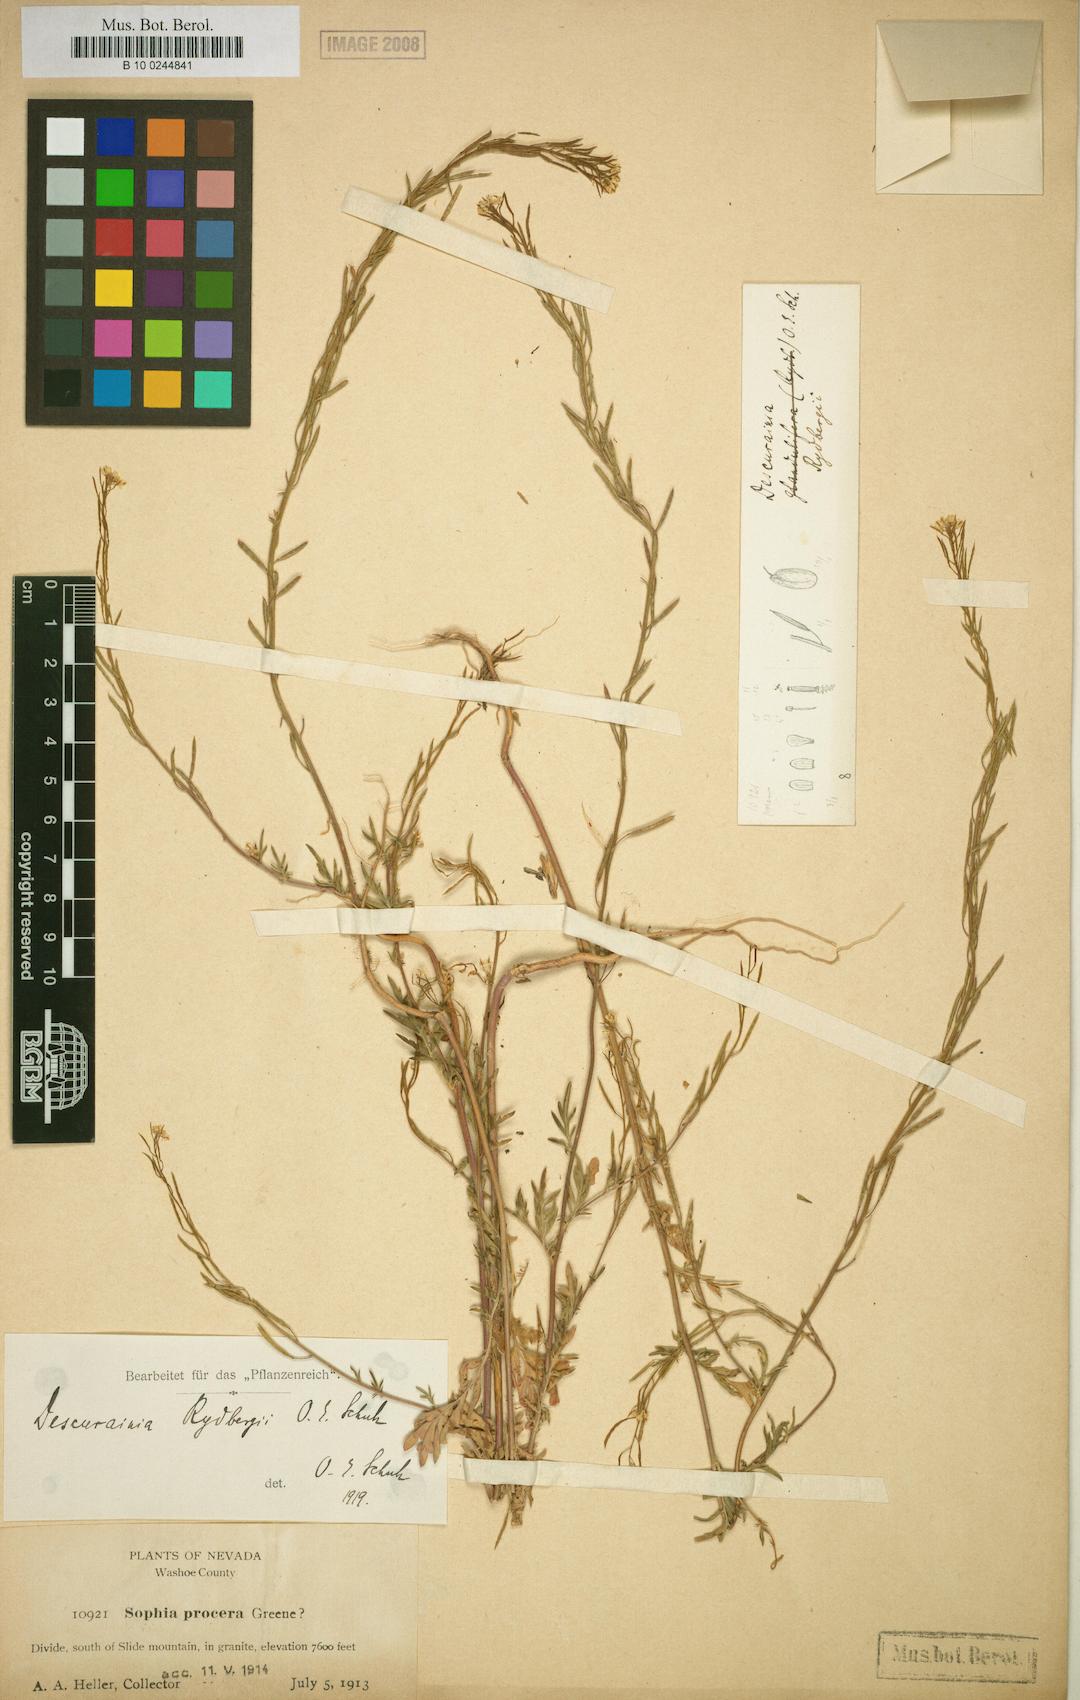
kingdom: Plantae
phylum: Tracheophyta
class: Magnoliopsida
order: Brassicales
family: Brassicaceae
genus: Descurainia
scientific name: Descurainia incisa
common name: Cut-leaved tansy mustard
